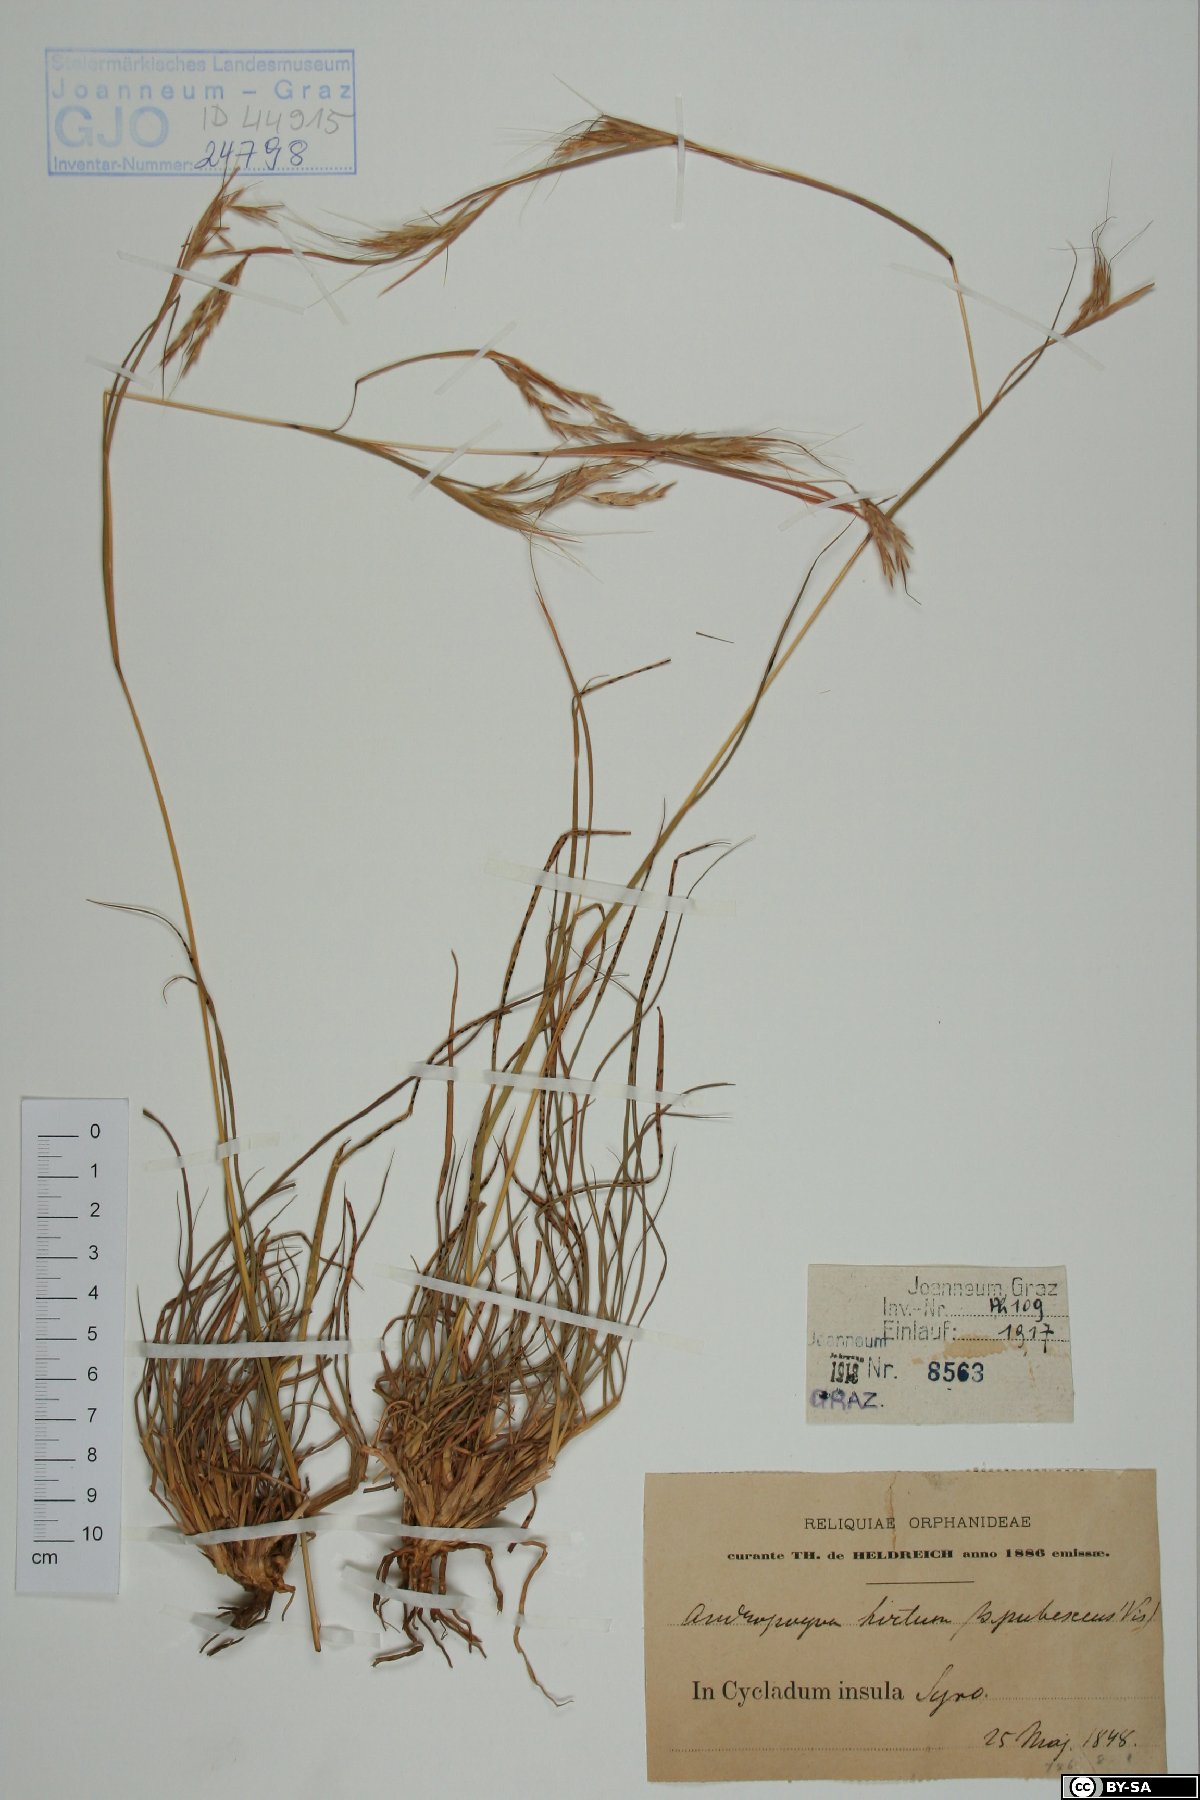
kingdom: Plantae
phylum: Tracheophyta
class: Liliopsida
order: Poales
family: Poaceae
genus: Hyparrhenia
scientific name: Hyparrhenia hirta
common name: Thatching grass
